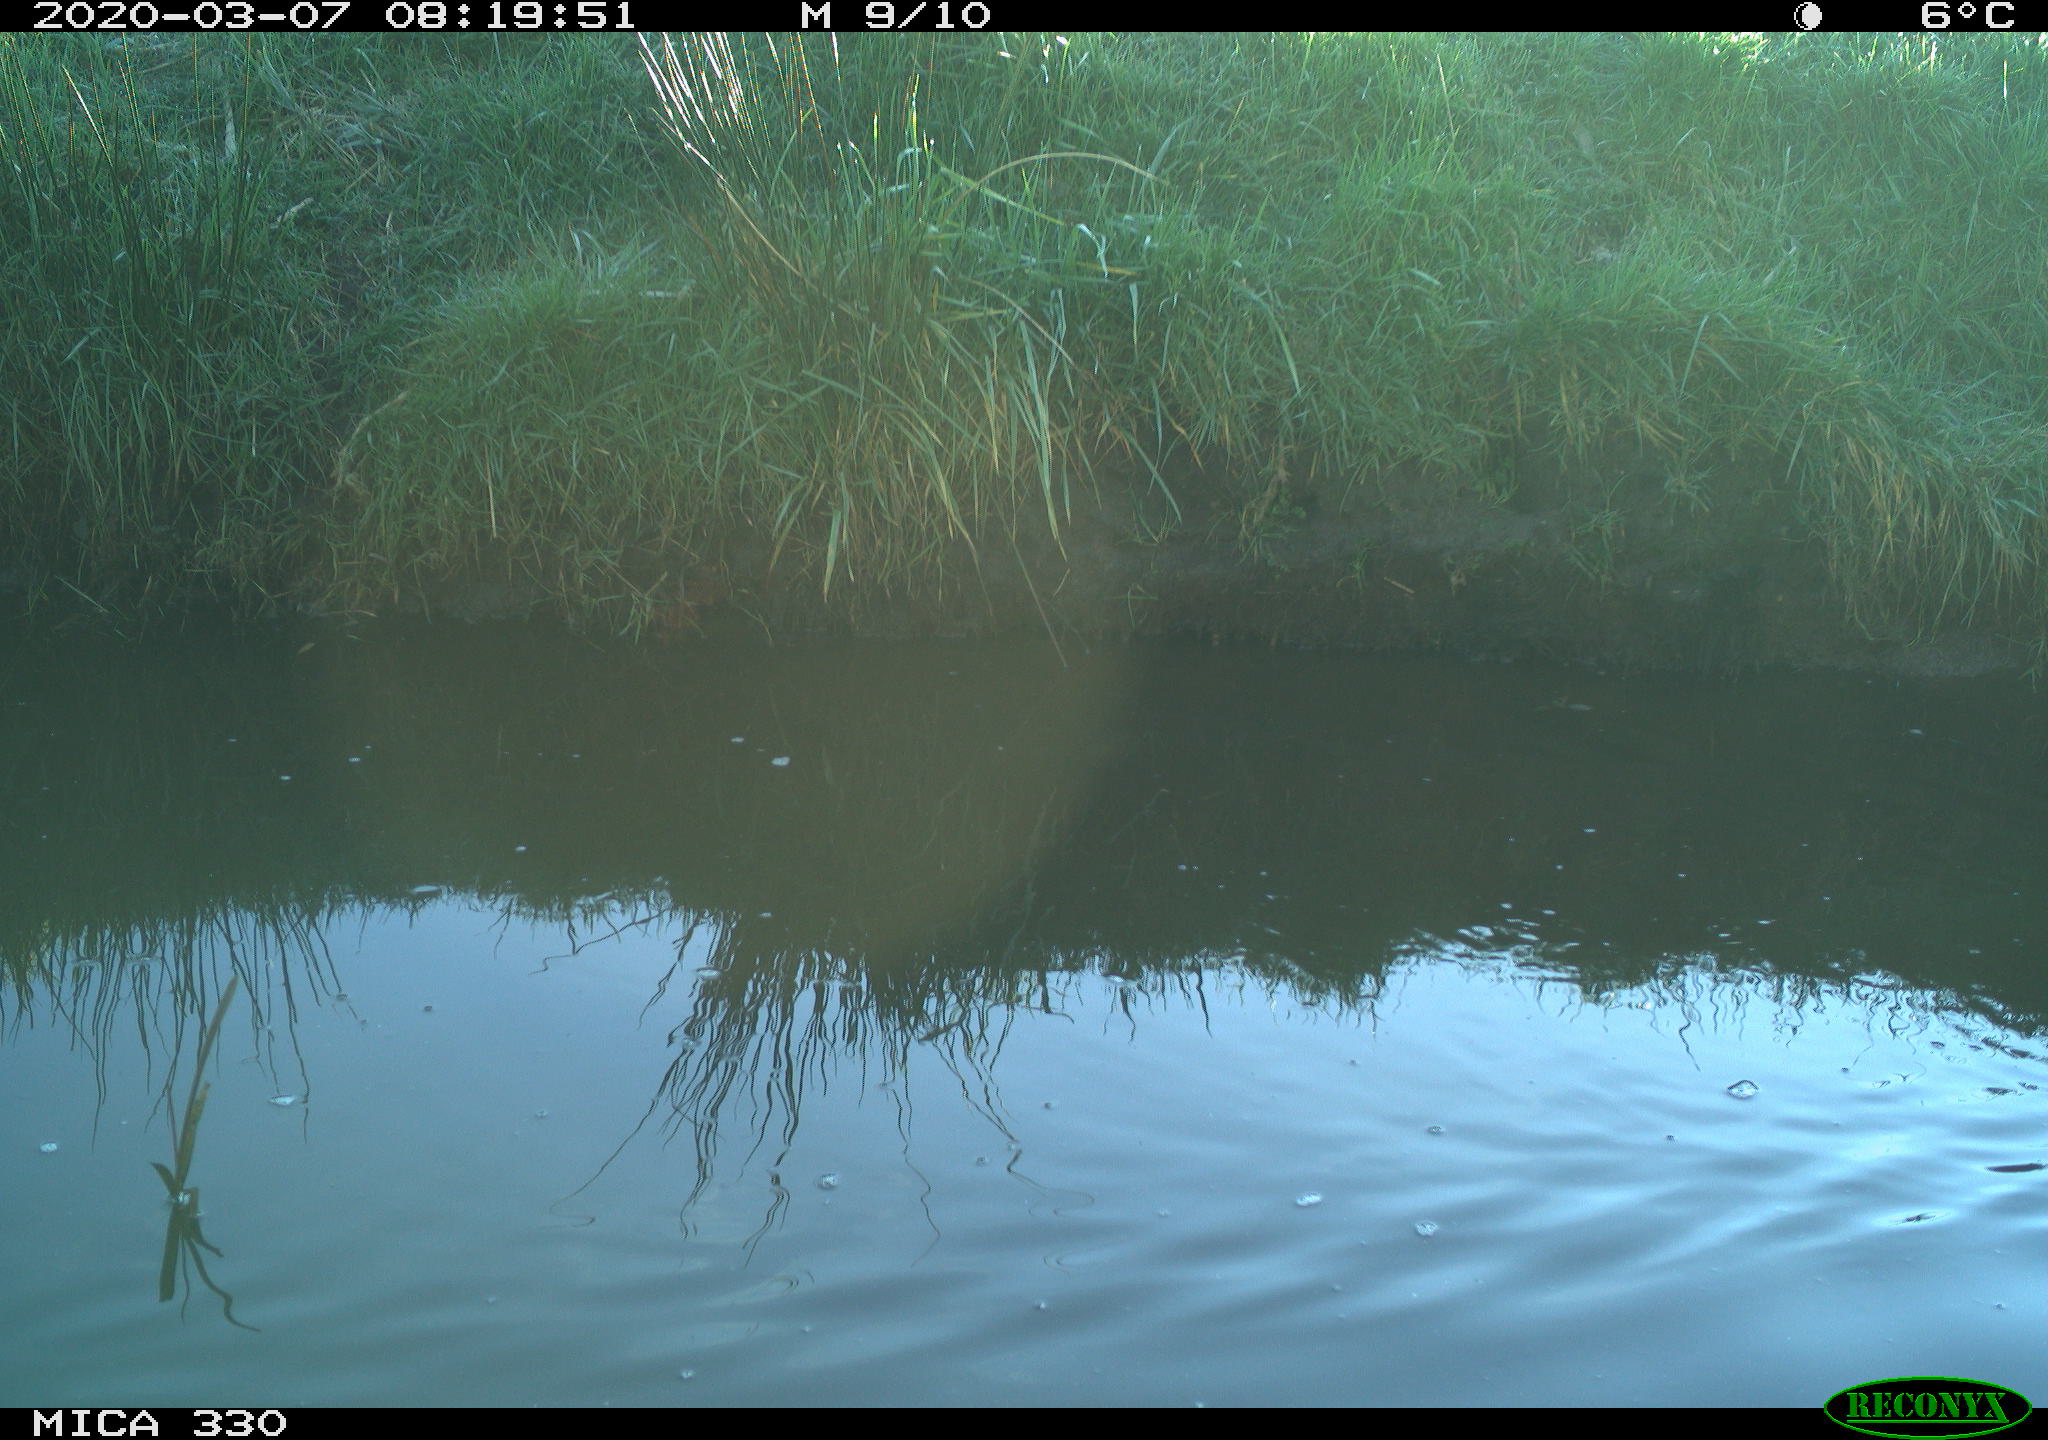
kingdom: Animalia
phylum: Chordata
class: Aves
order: Anseriformes
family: Anatidae
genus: Anas
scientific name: Anas platyrhynchos
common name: Mallard
